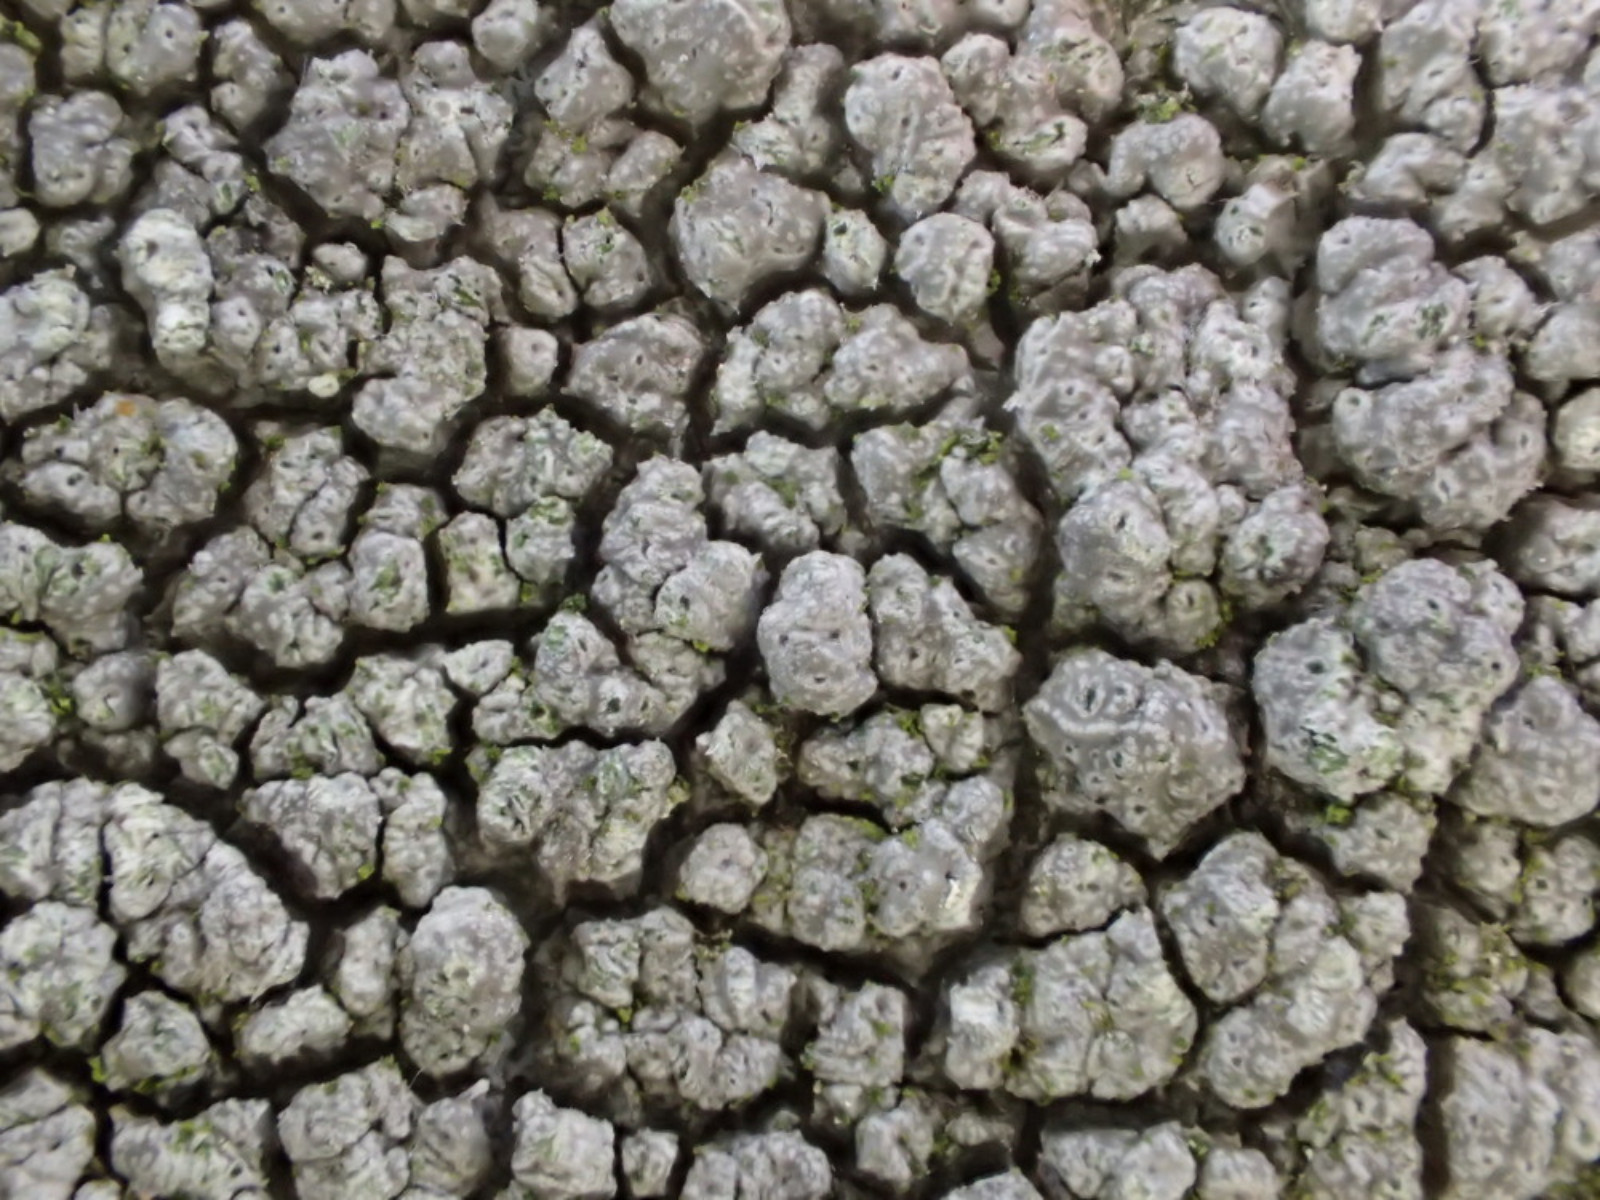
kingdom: Fungi
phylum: Ascomycota
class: Lecanoromycetes
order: Pertusariales
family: Pertusariaceae
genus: Pertusaria
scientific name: Pertusaria pertusa
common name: almindelig prikvortelav
